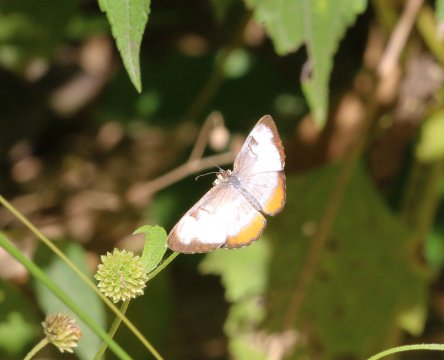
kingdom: Animalia
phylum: Arthropoda
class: Insecta
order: Lepidoptera
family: Nymphalidae
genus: Mestra
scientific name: Mestra amymone
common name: Common Mestra
